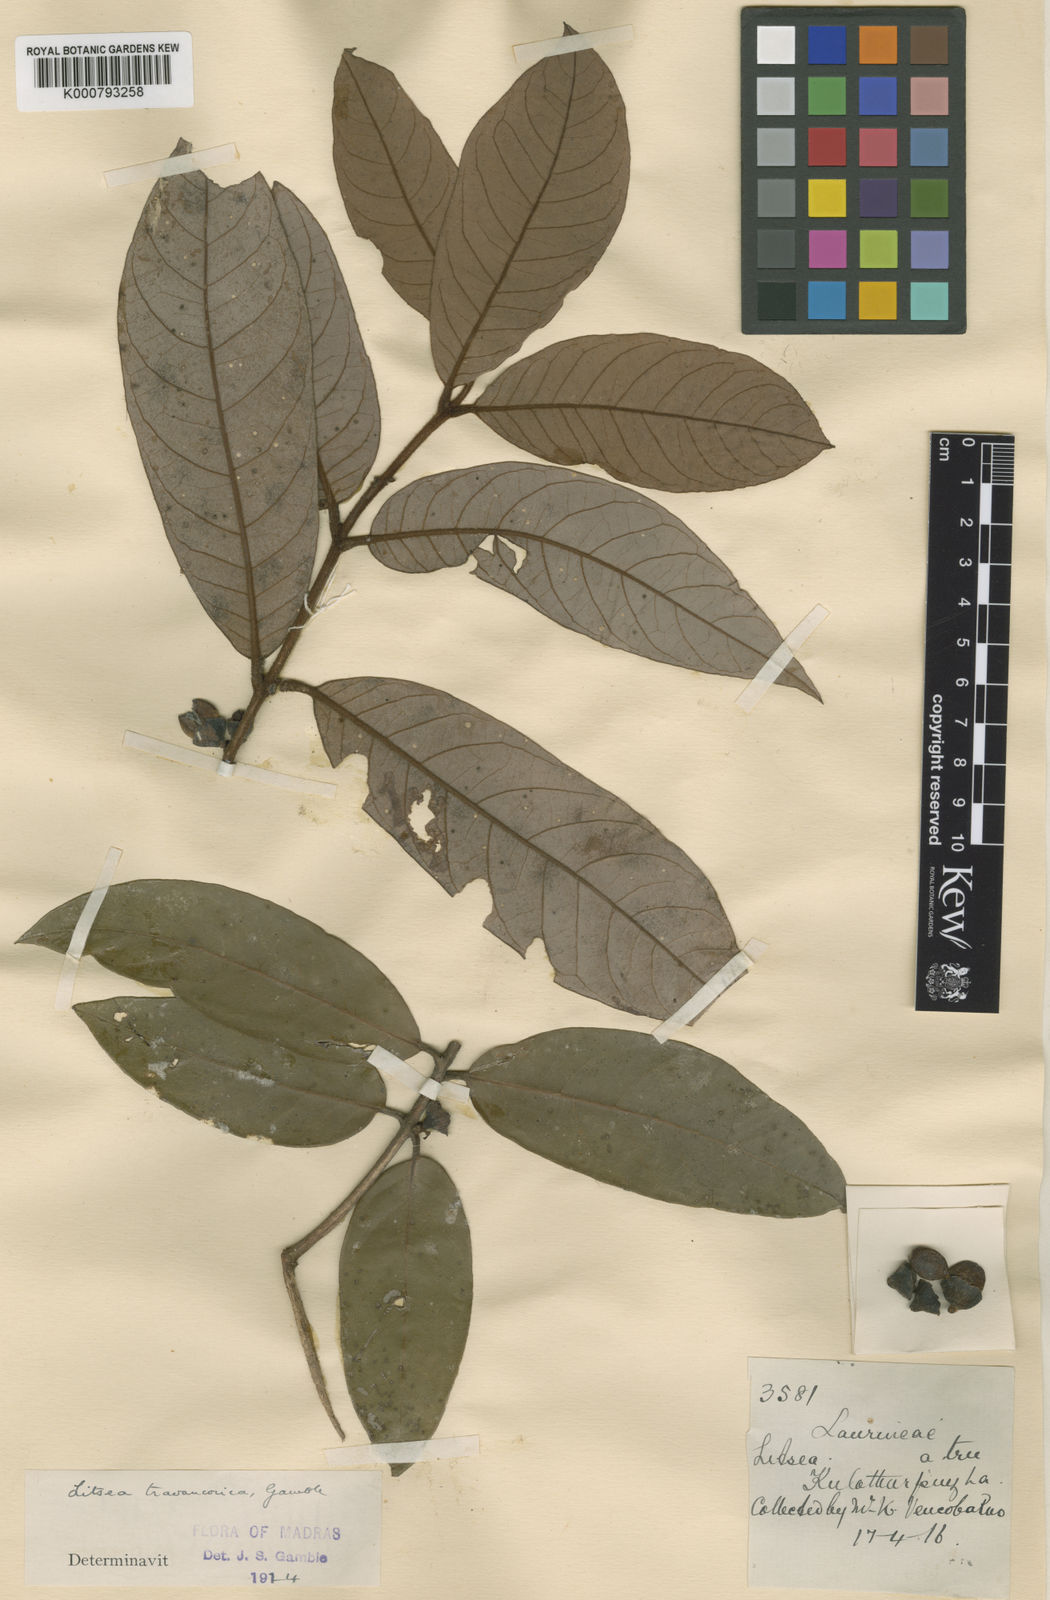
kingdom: Plantae
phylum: Tracheophyta
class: Magnoliopsida
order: Laurales
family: Lauraceae
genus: Litsea
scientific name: Litsea travancorica
